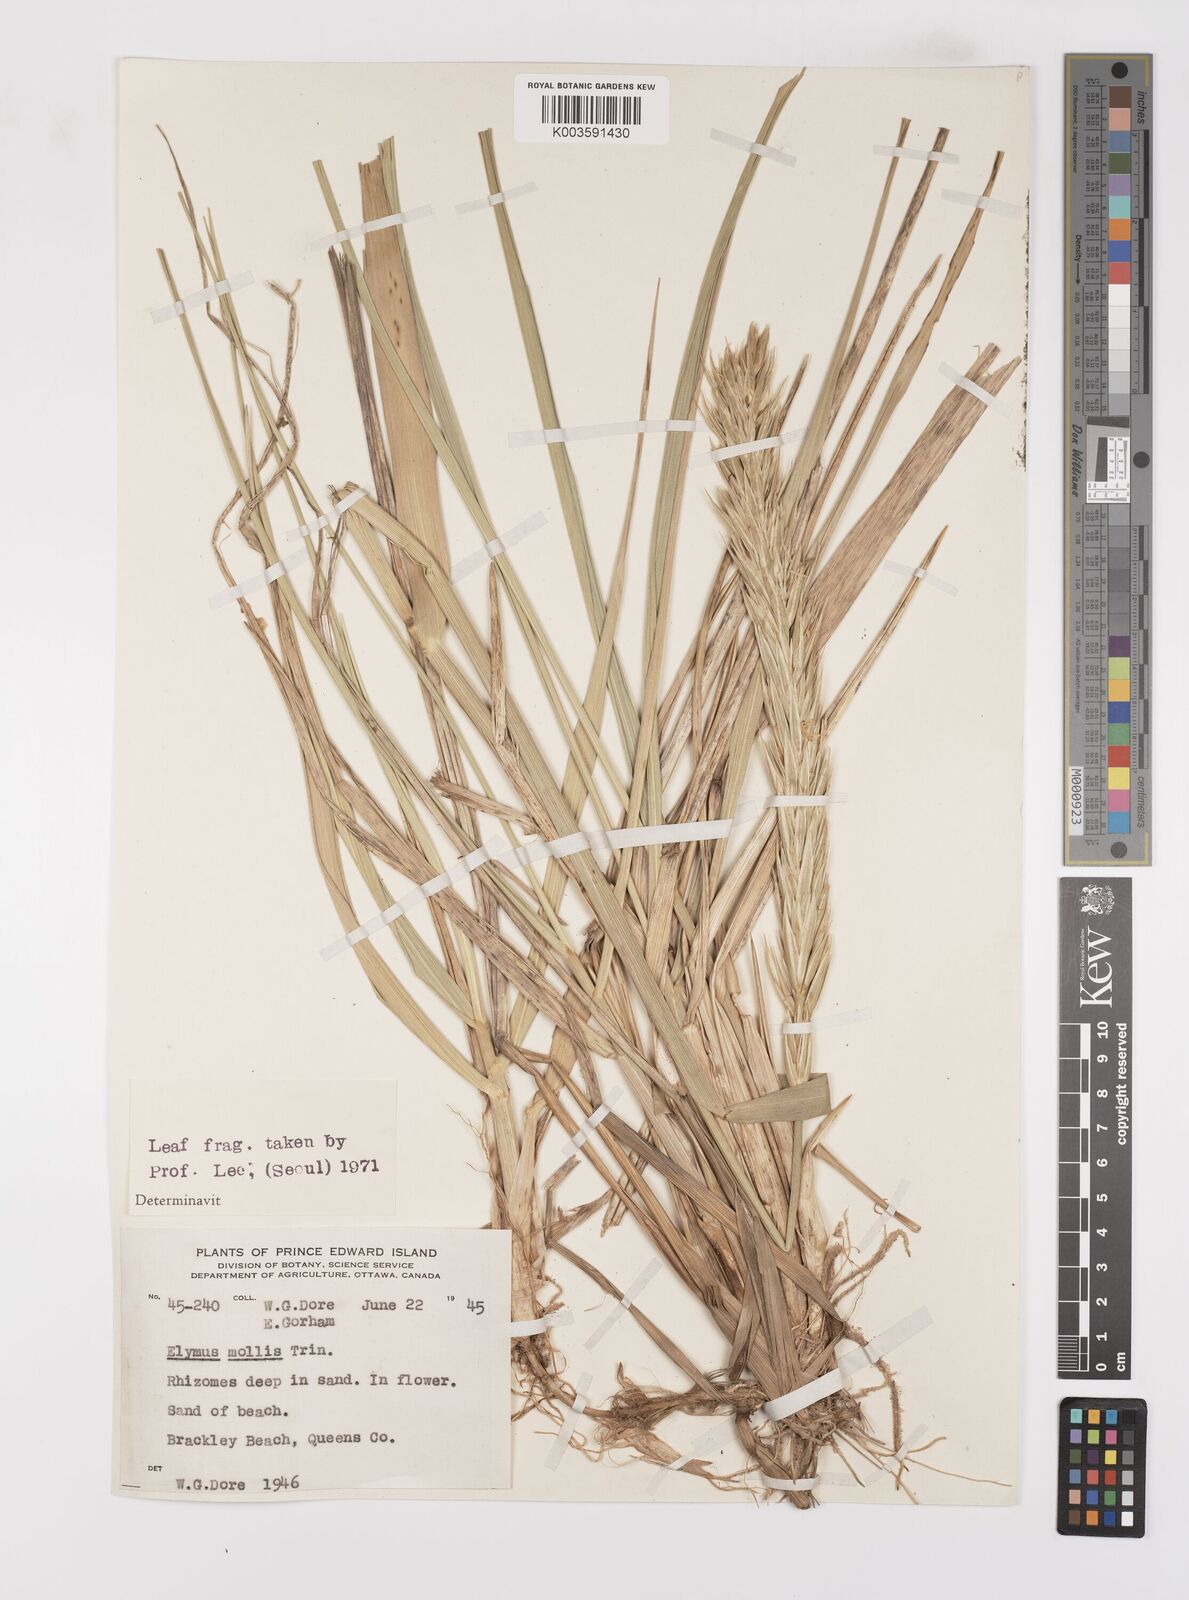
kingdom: Plantae
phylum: Tracheophyta
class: Liliopsida
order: Poales
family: Poaceae
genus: Leymus
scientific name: Leymus mollis
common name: American dune grass
